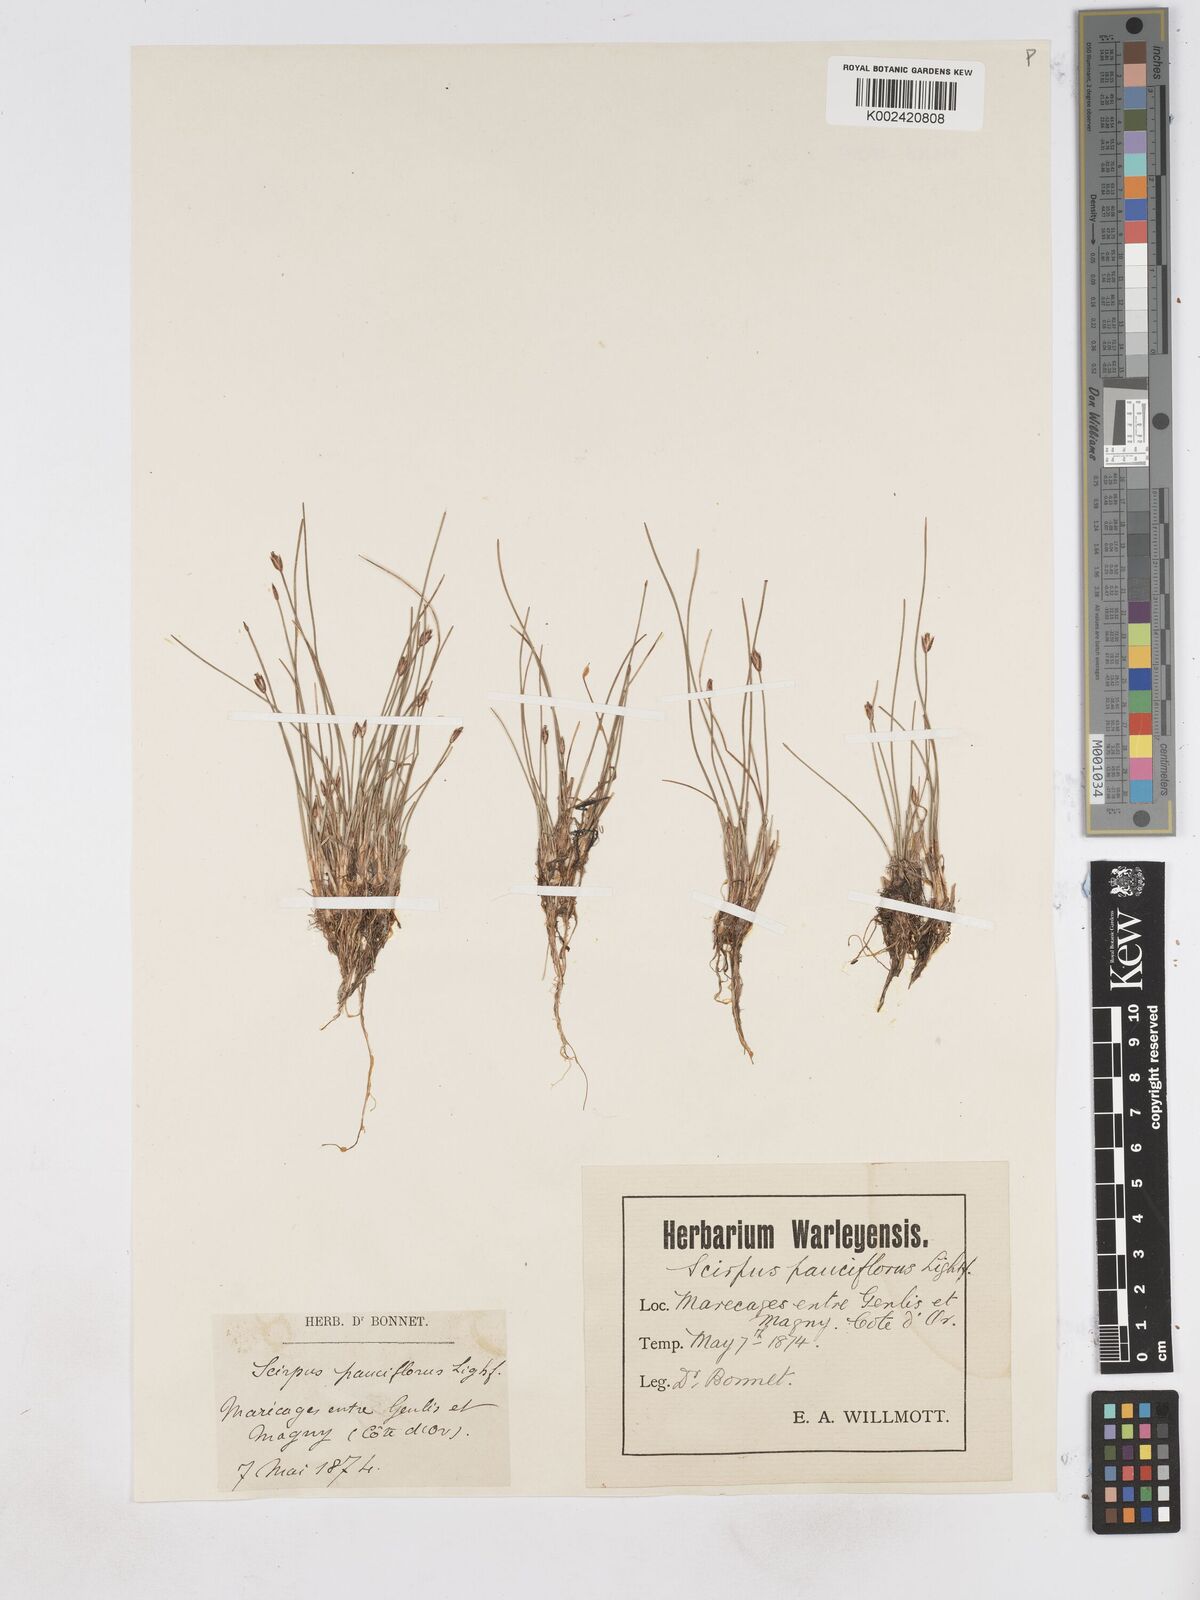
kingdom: Plantae
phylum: Tracheophyta
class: Liliopsida
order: Poales
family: Cyperaceae
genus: Eleocharis
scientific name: Eleocharis quinqueflora
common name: Few-flowered spike-rush
